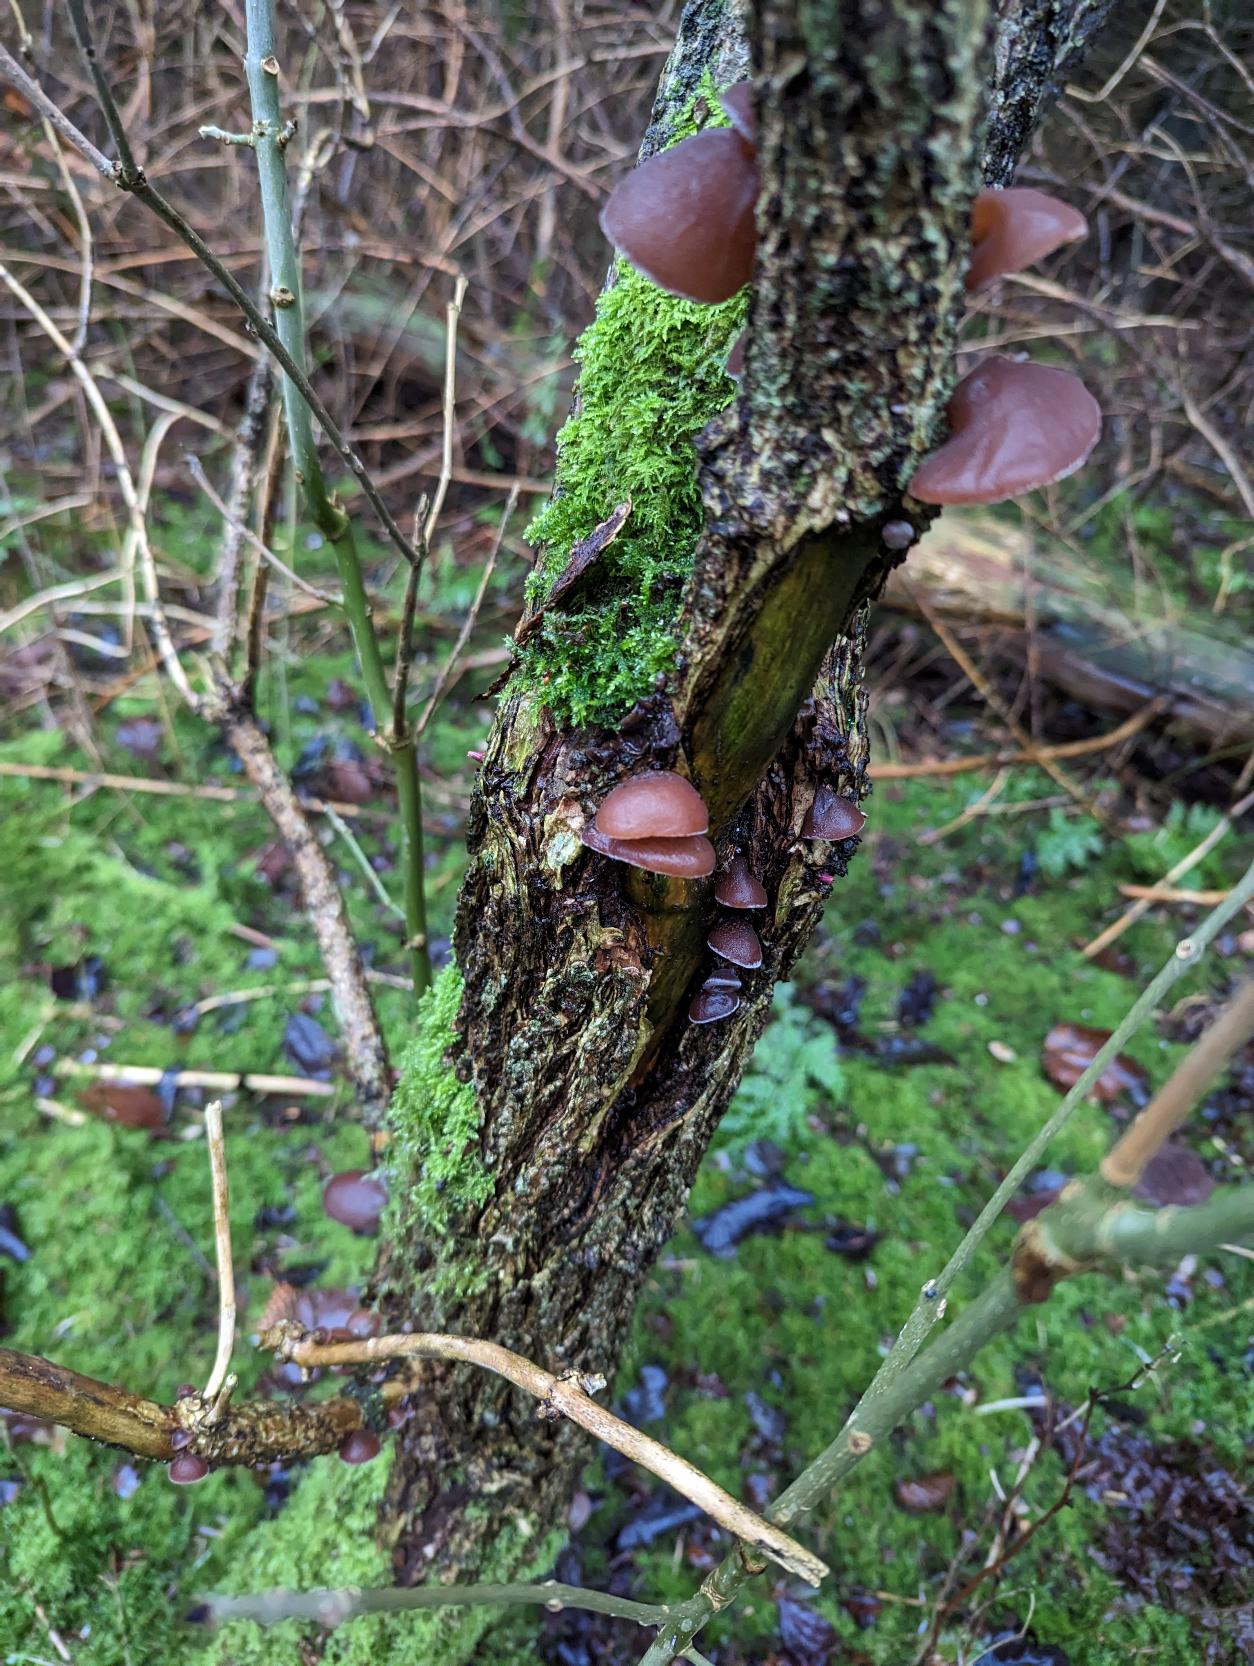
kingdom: Fungi
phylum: Basidiomycota
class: Agaricomycetes
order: Auriculariales
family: Auriculariaceae
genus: Auricularia
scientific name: Auricularia auricula-judae
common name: Almindelig judasøre
